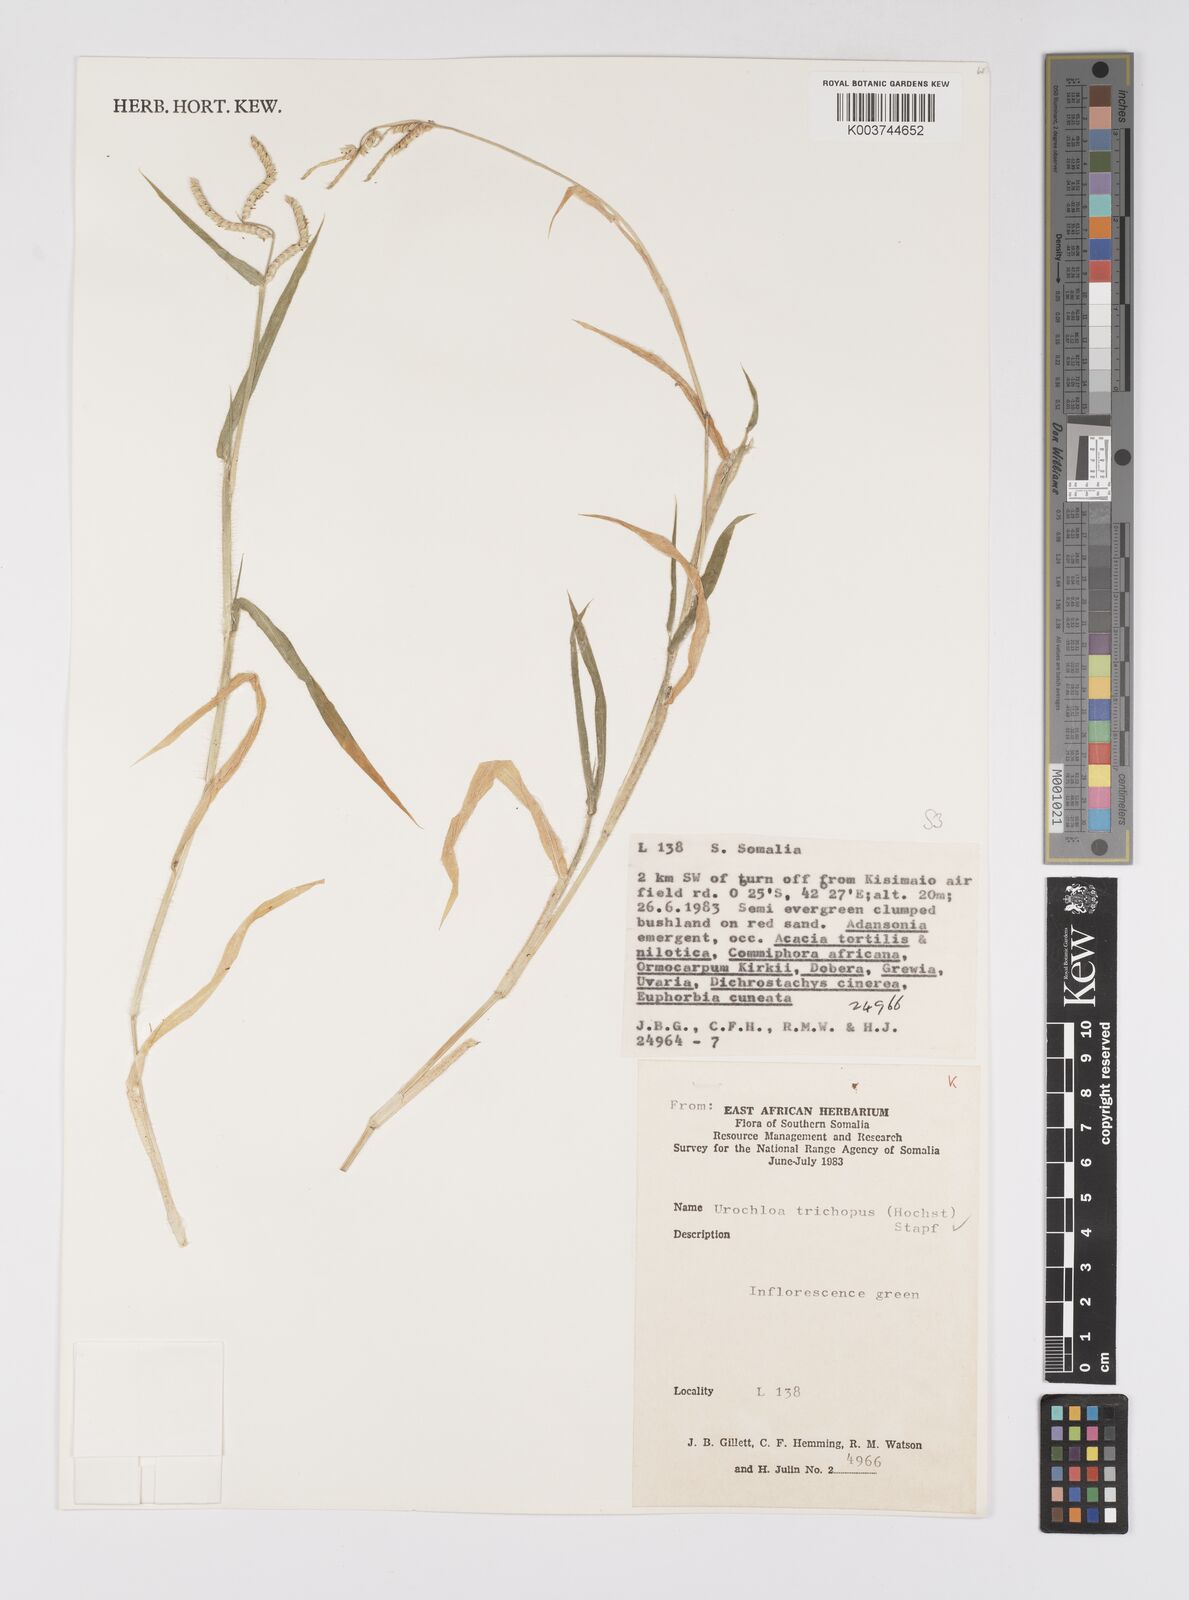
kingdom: Plantae
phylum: Tracheophyta
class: Liliopsida
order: Poales
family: Poaceae
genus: Urochloa
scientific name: Urochloa trichopus
